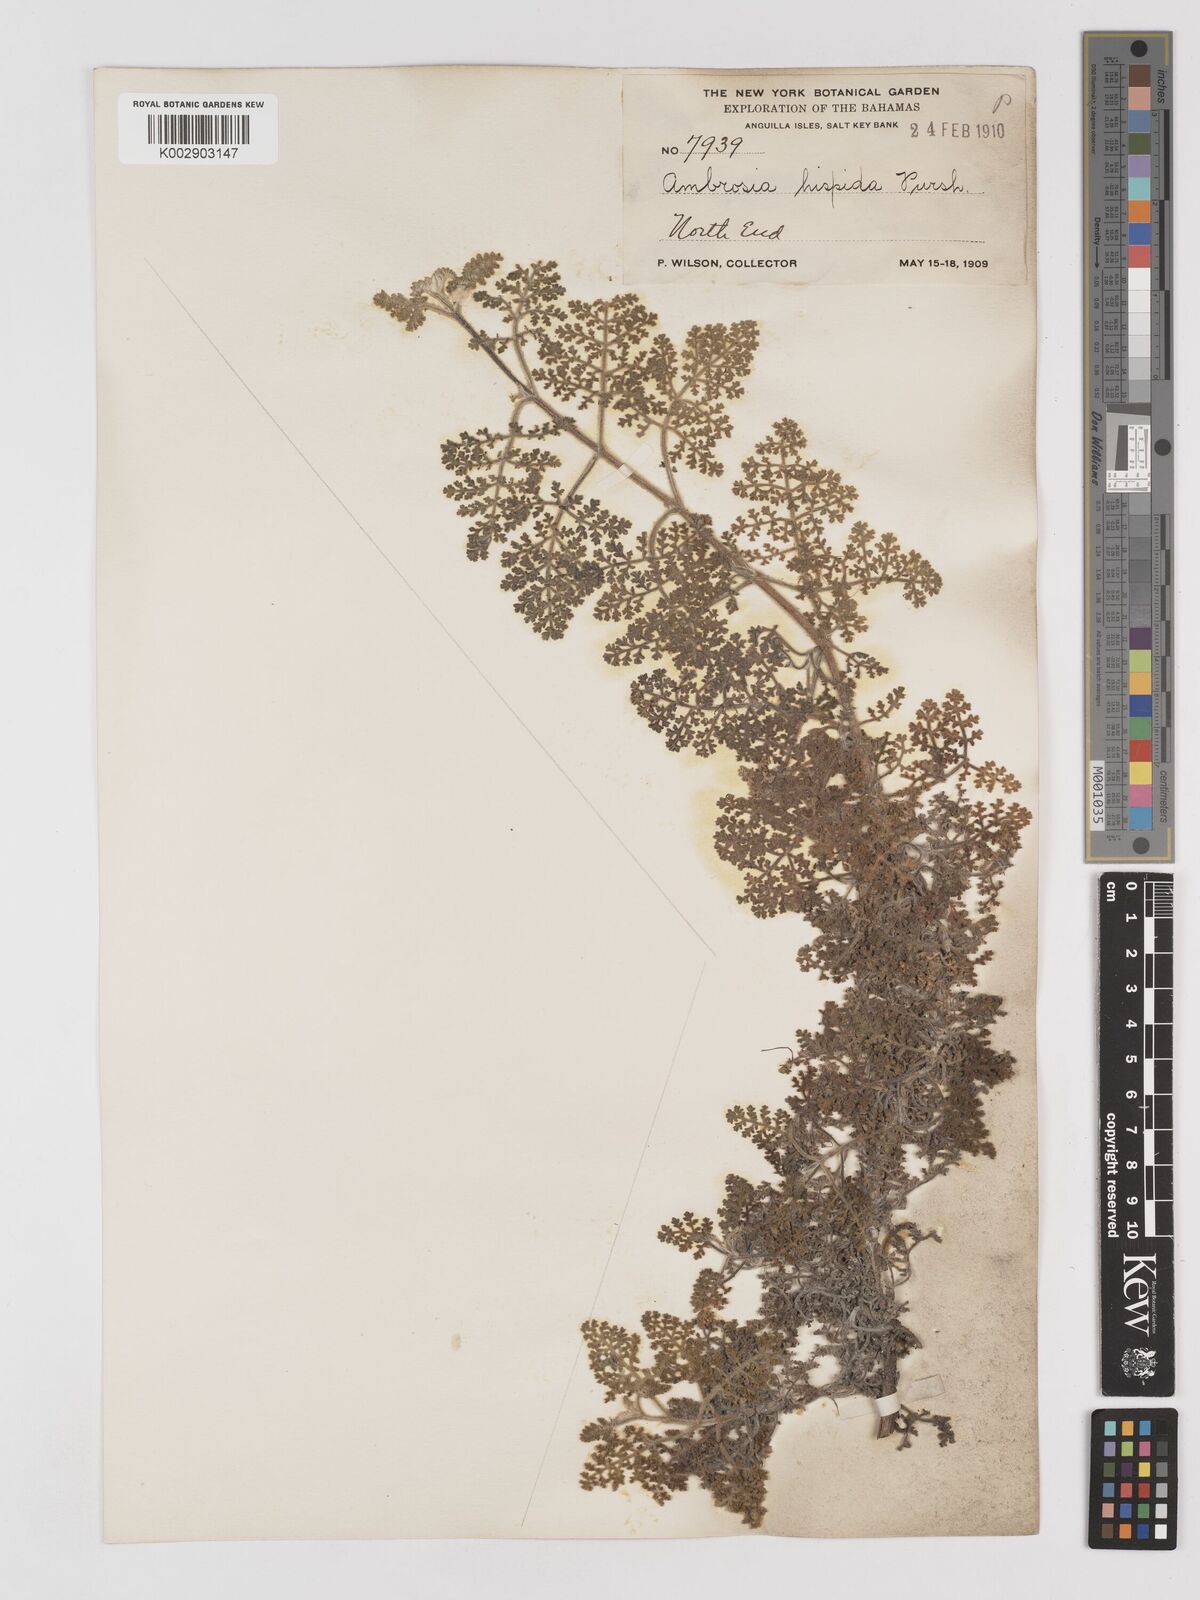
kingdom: Plantae
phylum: Tracheophyta
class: Magnoliopsida
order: Asterales
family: Asteraceae
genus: Ambrosia
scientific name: Ambrosia hispida
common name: Coastal ragweed
